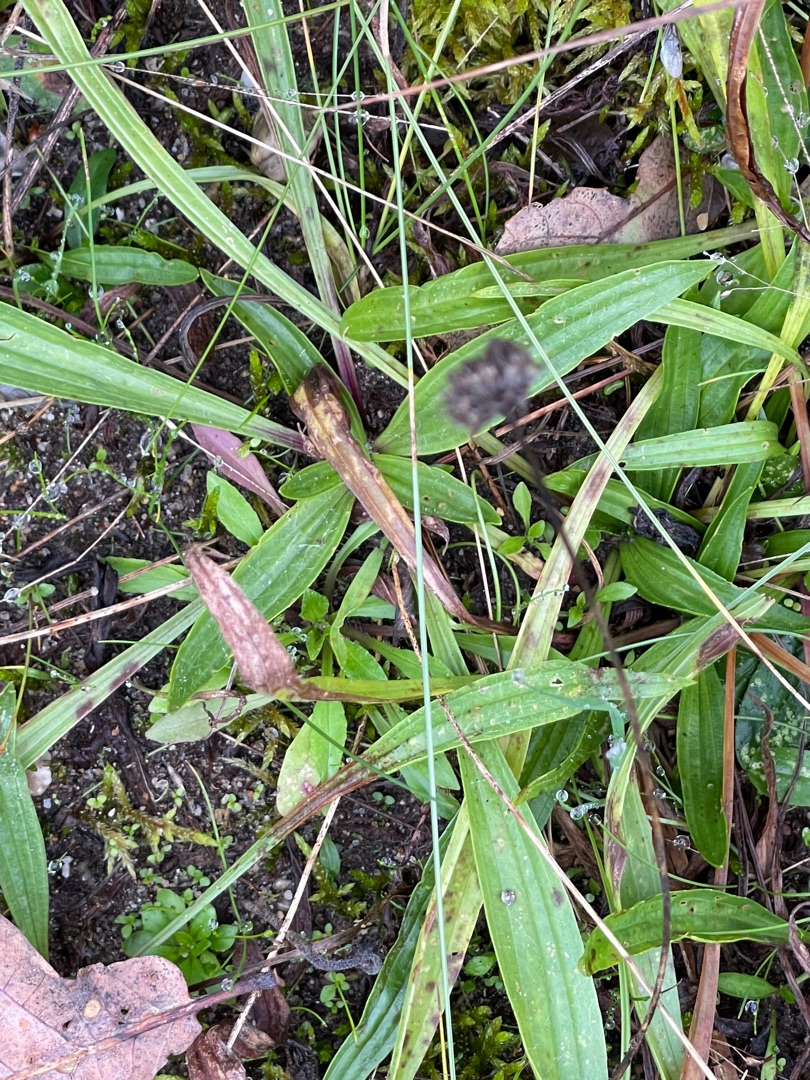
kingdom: Plantae
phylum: Tracheophyta
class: Magnoliopsida
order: Lamiales
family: Plantaginaceae
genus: Plantago
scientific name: Plantago lanceolata
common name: Lancet-vejbred
